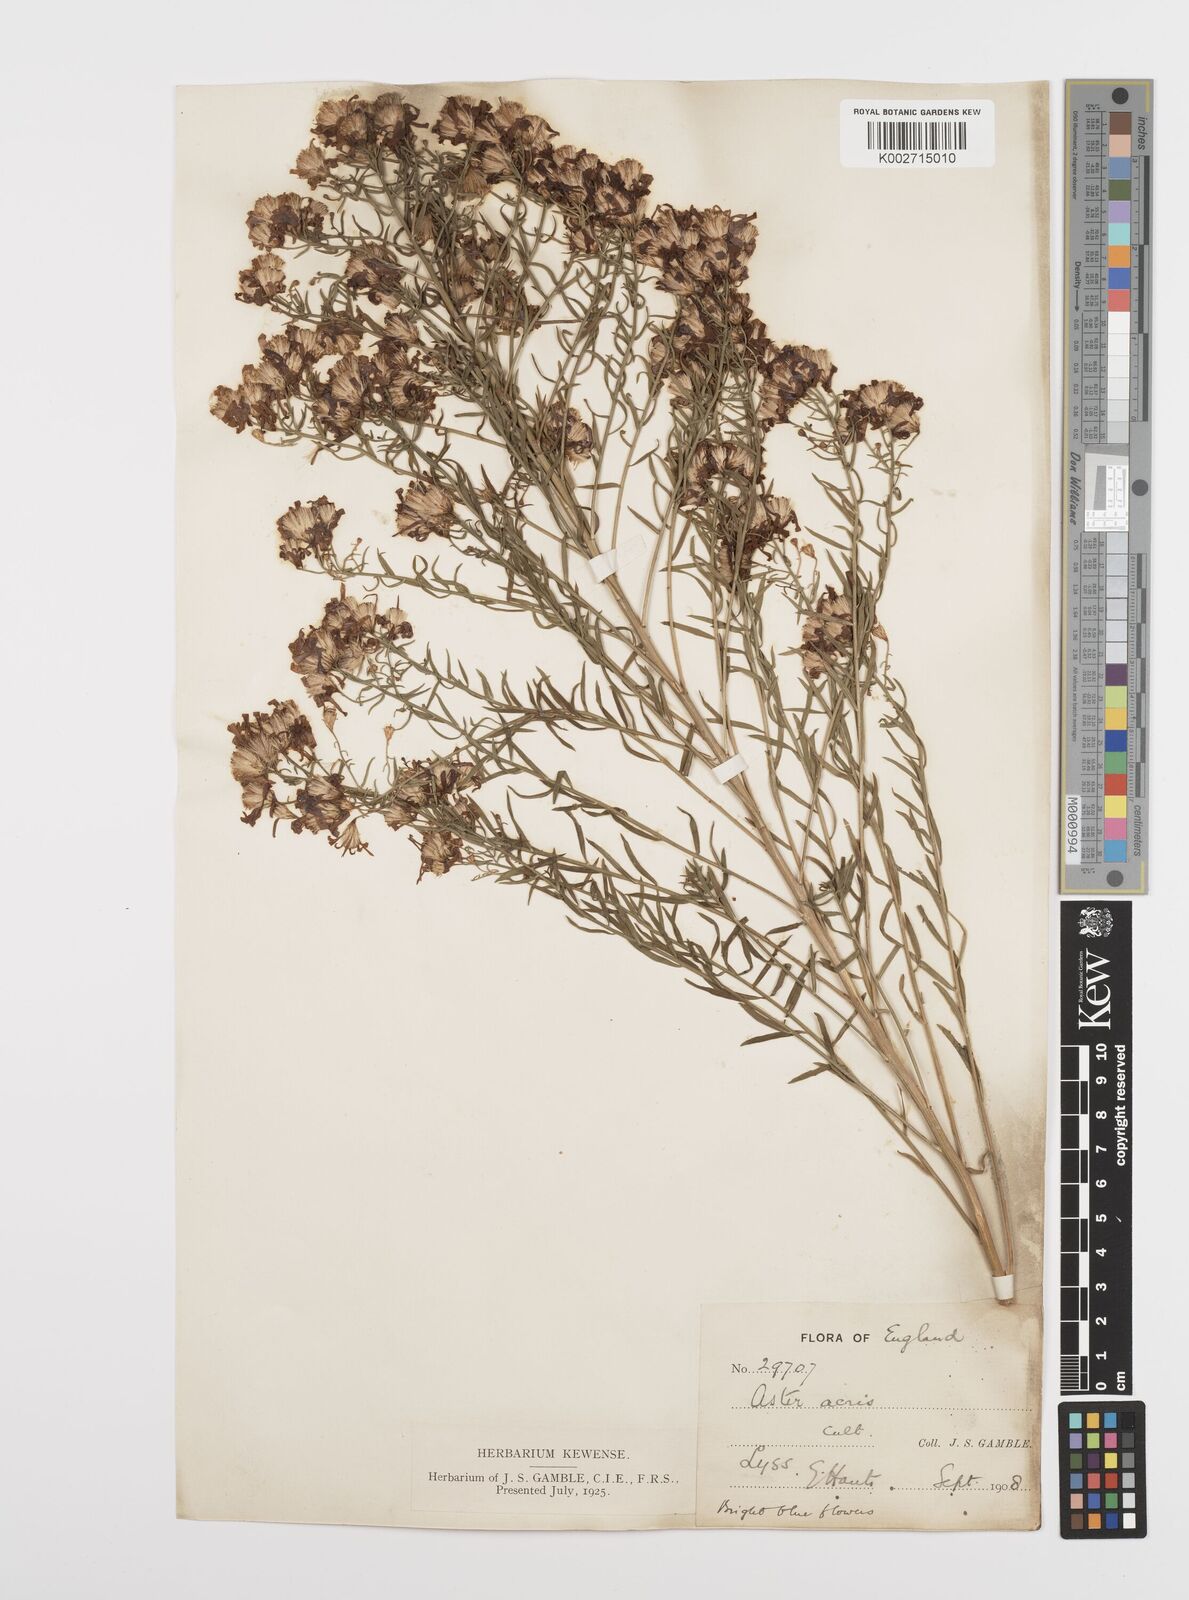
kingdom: Plantae
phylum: Tracheophyta
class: Magnoliopsida
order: Asterales
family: Asteraceae
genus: Aster
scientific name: Aster
